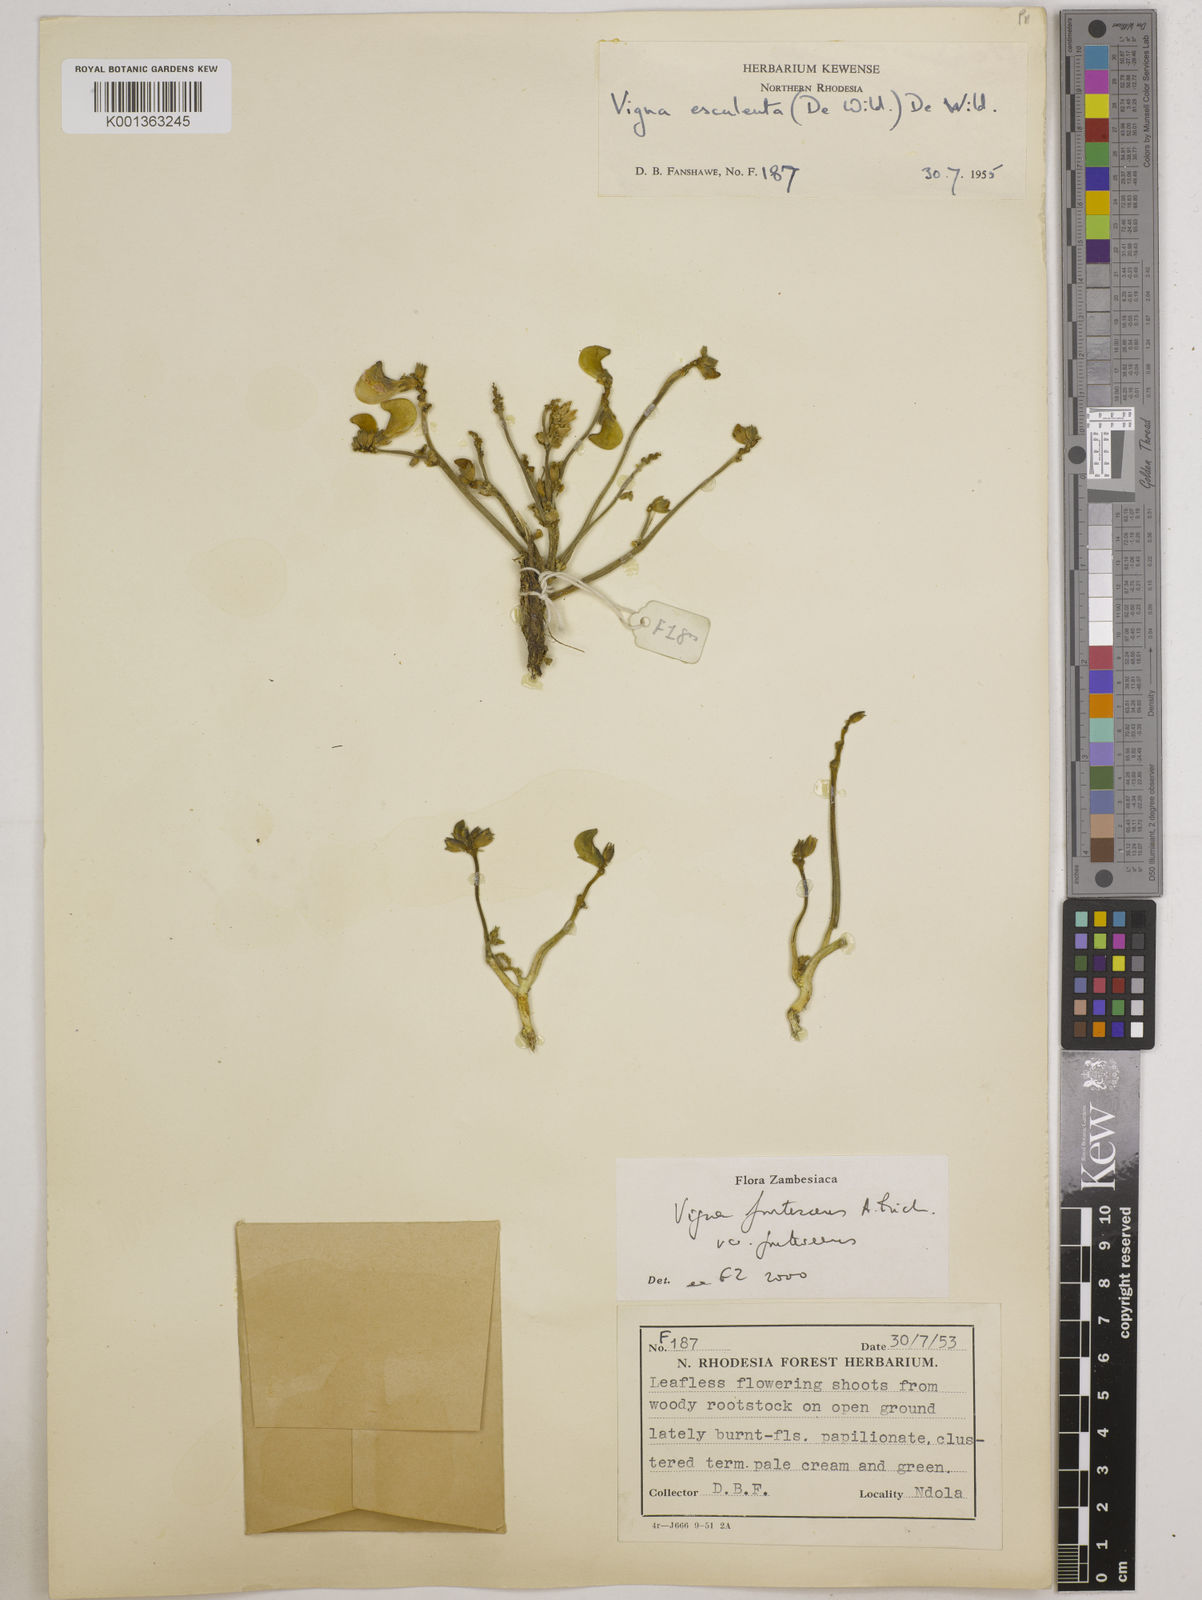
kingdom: Plantae
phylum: Tracheophyta
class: Magnoliopsida
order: Fabales
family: Fabaceae
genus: Vigna
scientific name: Vigna
